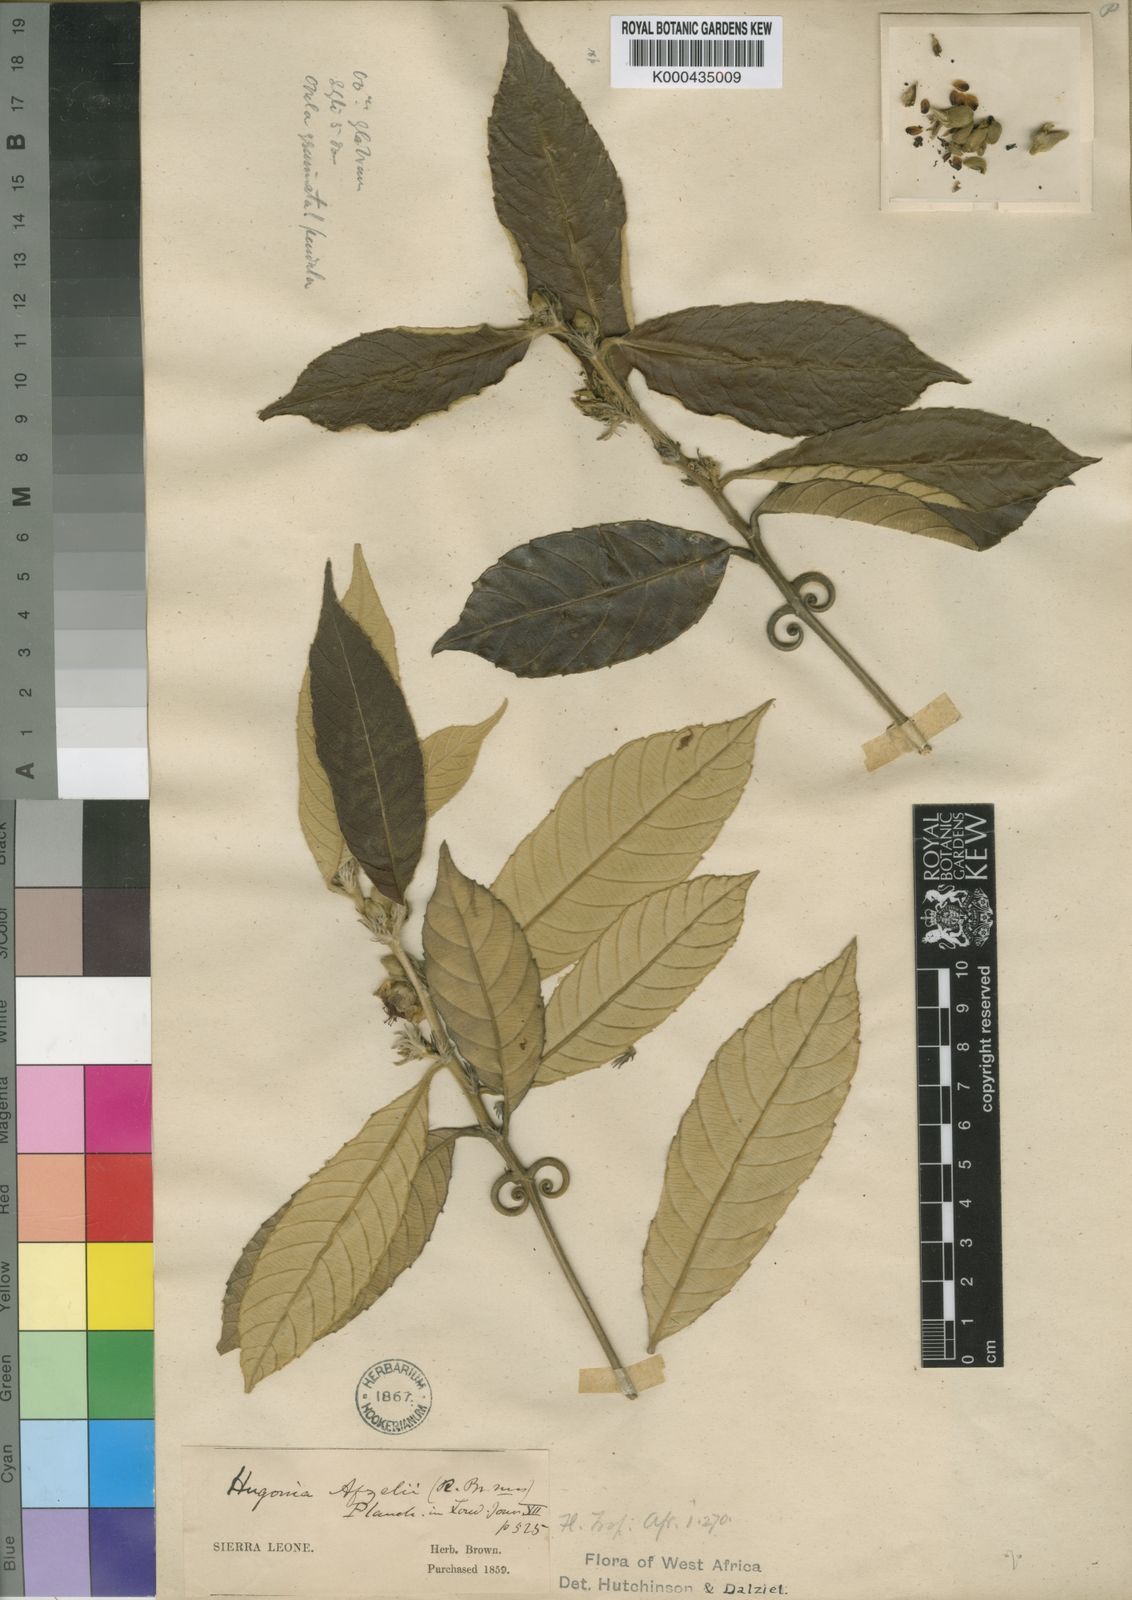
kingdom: Plantae
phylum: Tracheophyta
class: Magnoliopsida
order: Malpighiales
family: Linaceae
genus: Hugonia
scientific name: Hugonia afzelii
